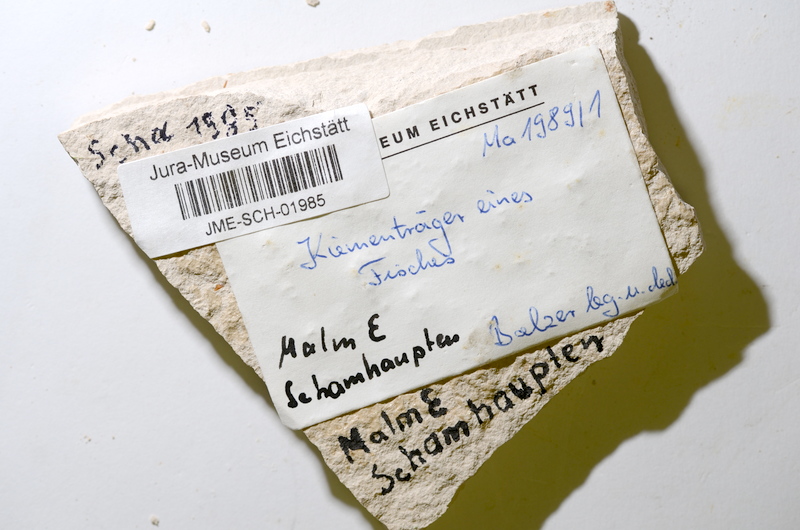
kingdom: Animalia
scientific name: Animalia
